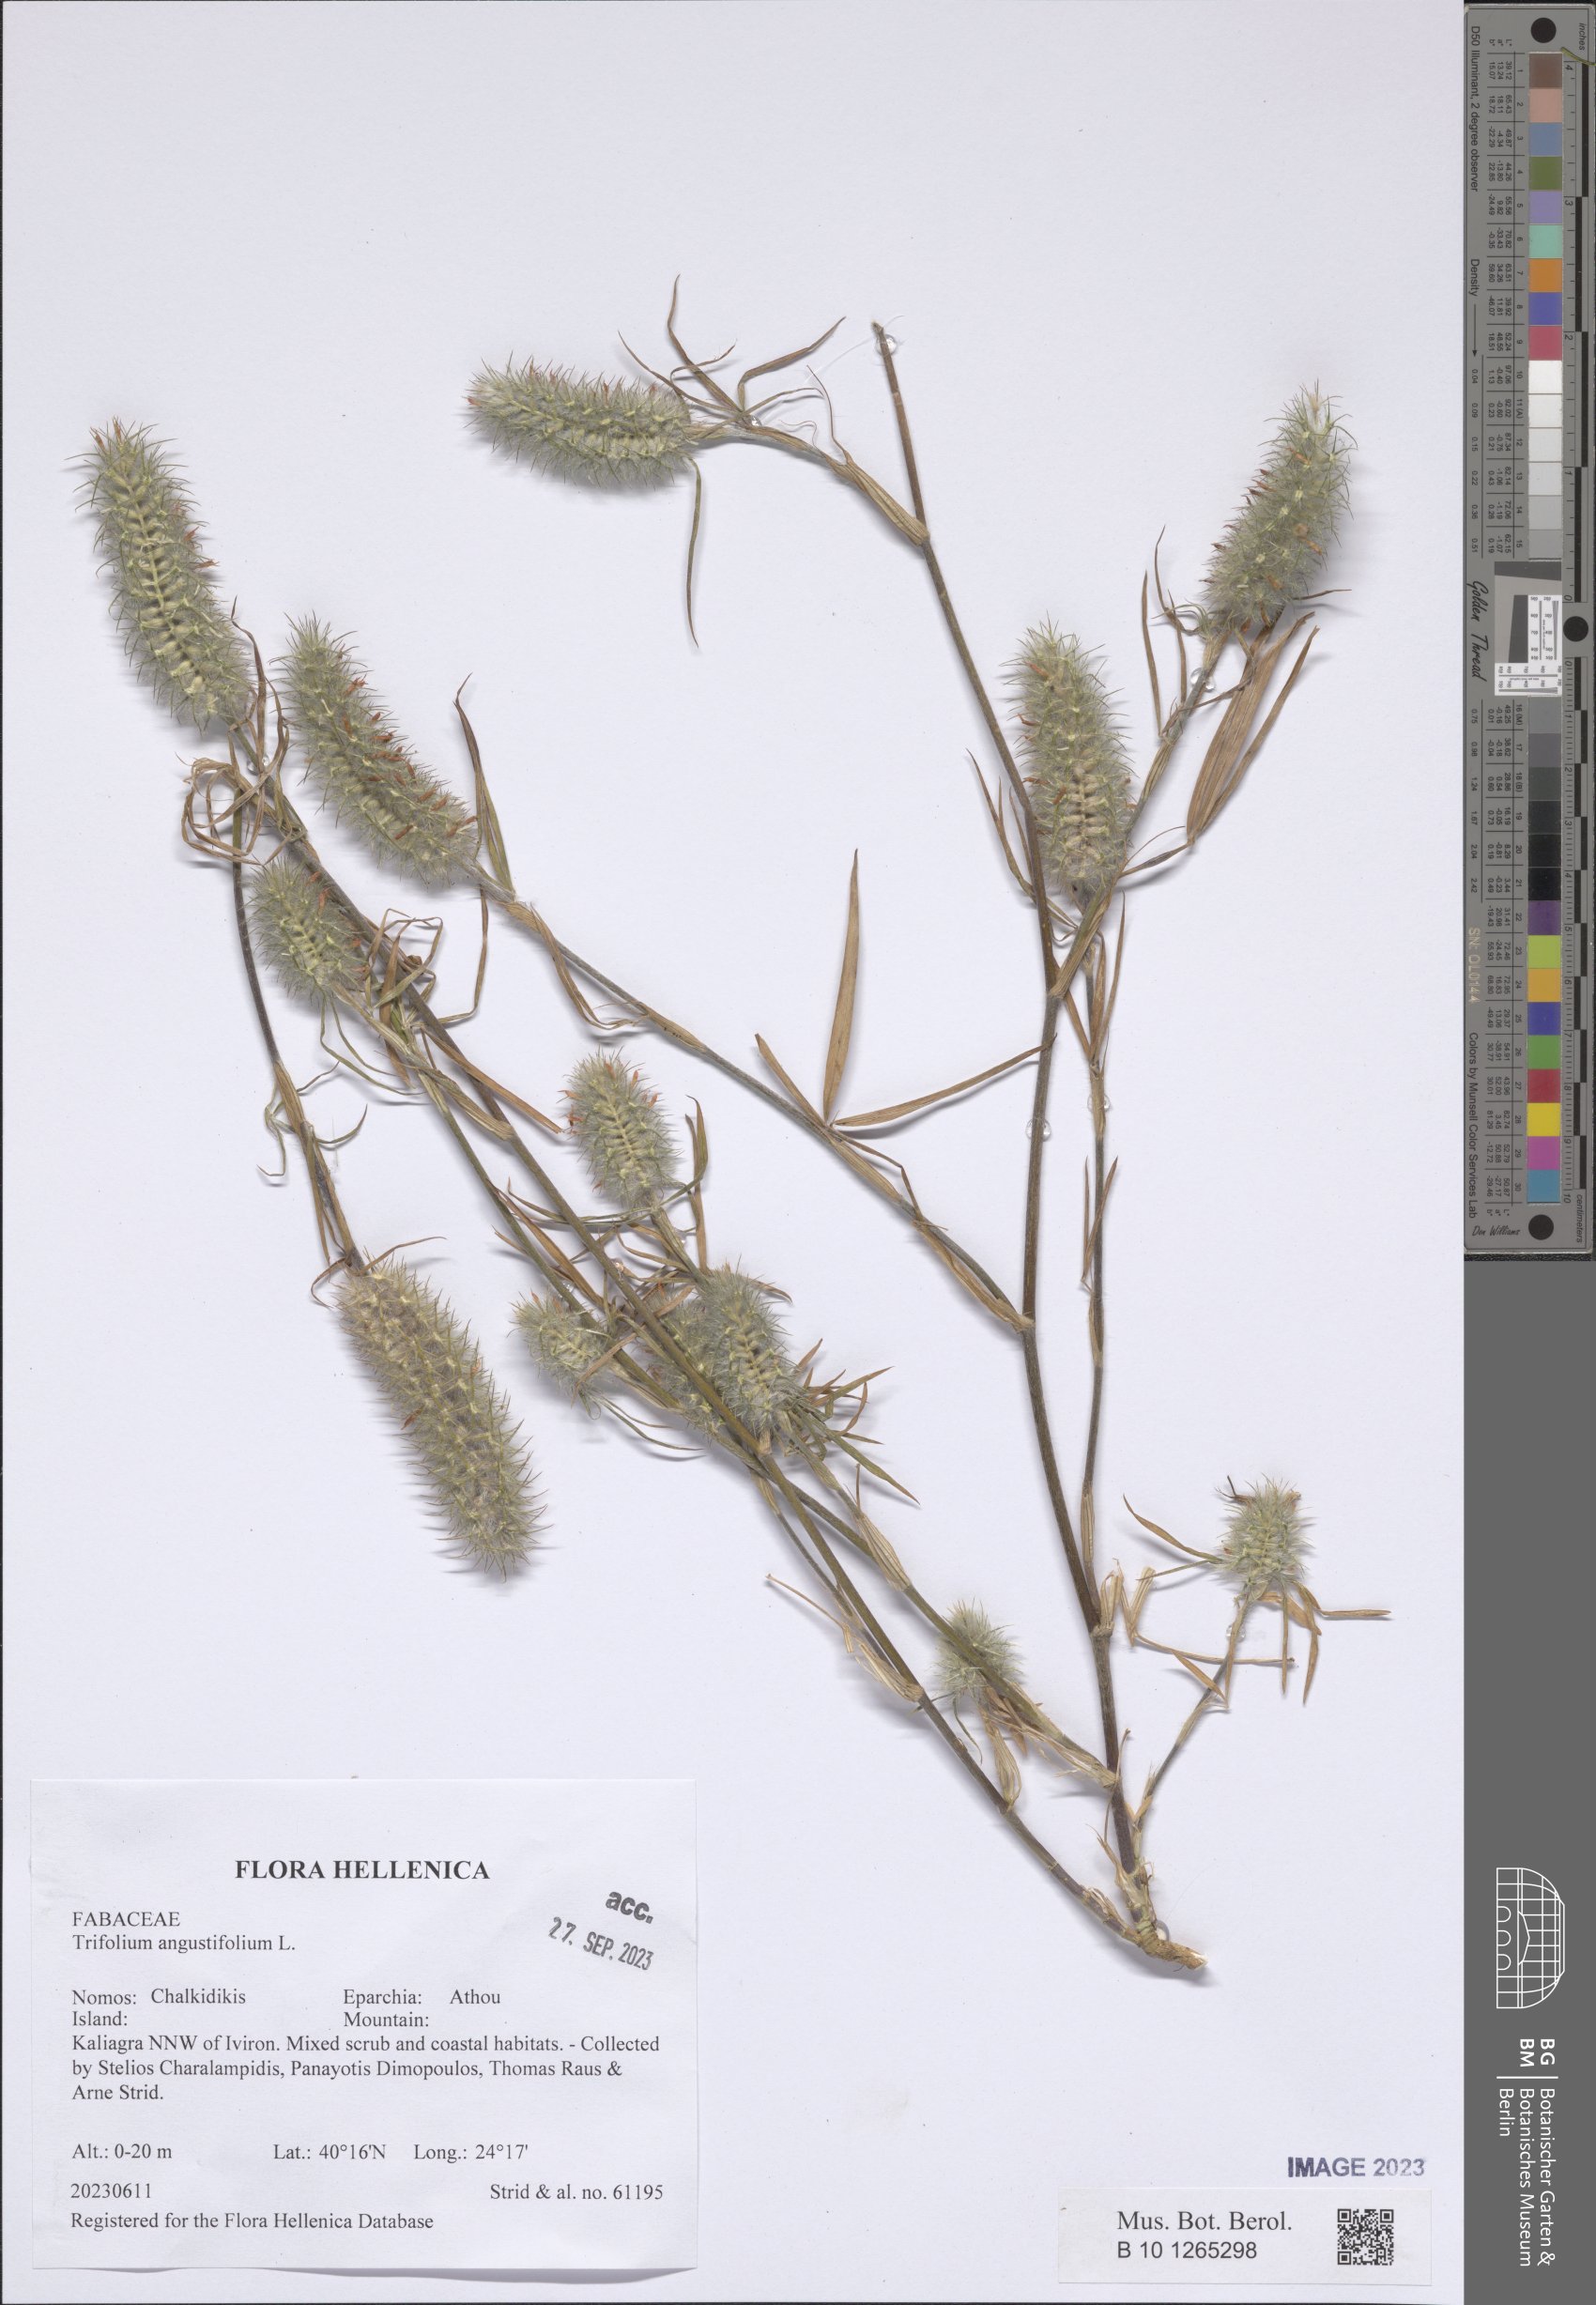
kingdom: Plantae
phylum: Tracheophyta
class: Magnoliopsida
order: Fabales
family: Fabaceae
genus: Trifolium
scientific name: Trifolium angustifolium
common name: Narrow clover
